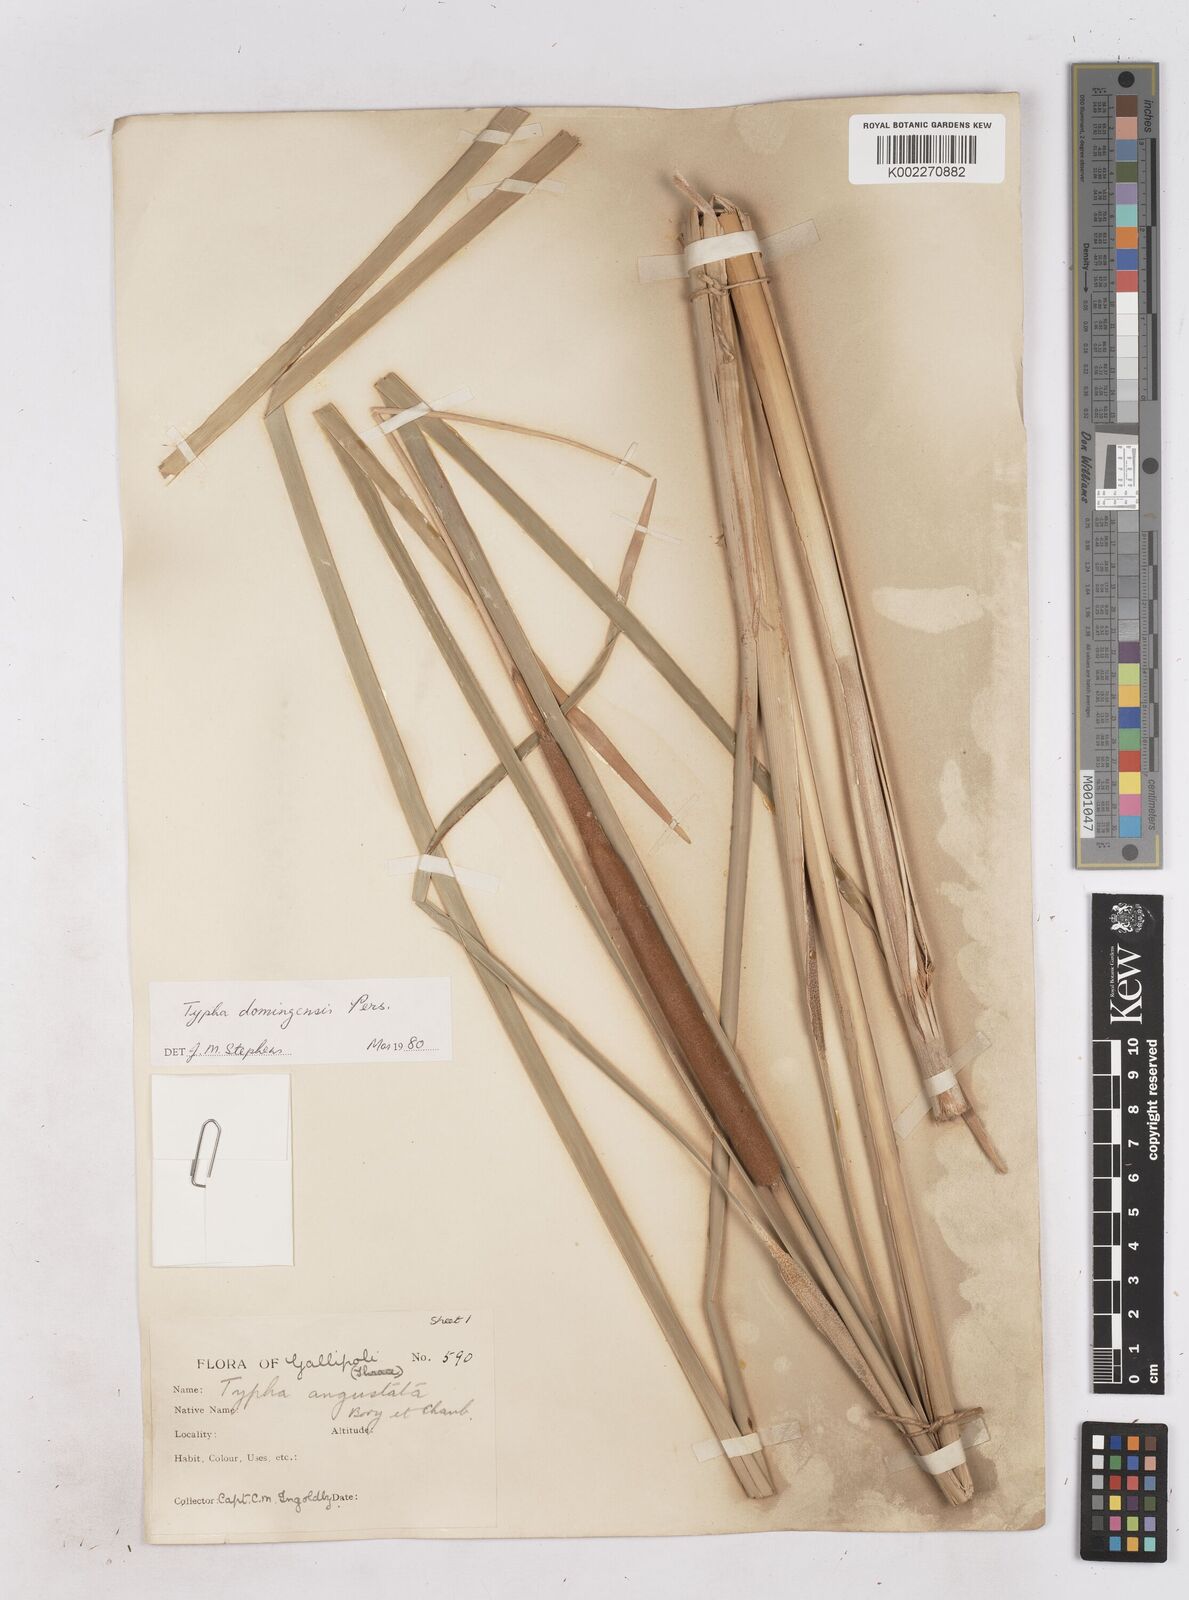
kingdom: Plantae
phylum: Tracheophyta
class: Liliopsida
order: Poales
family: Typhaceae
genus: Typha
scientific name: Typha domingensis
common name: Southern cattail
